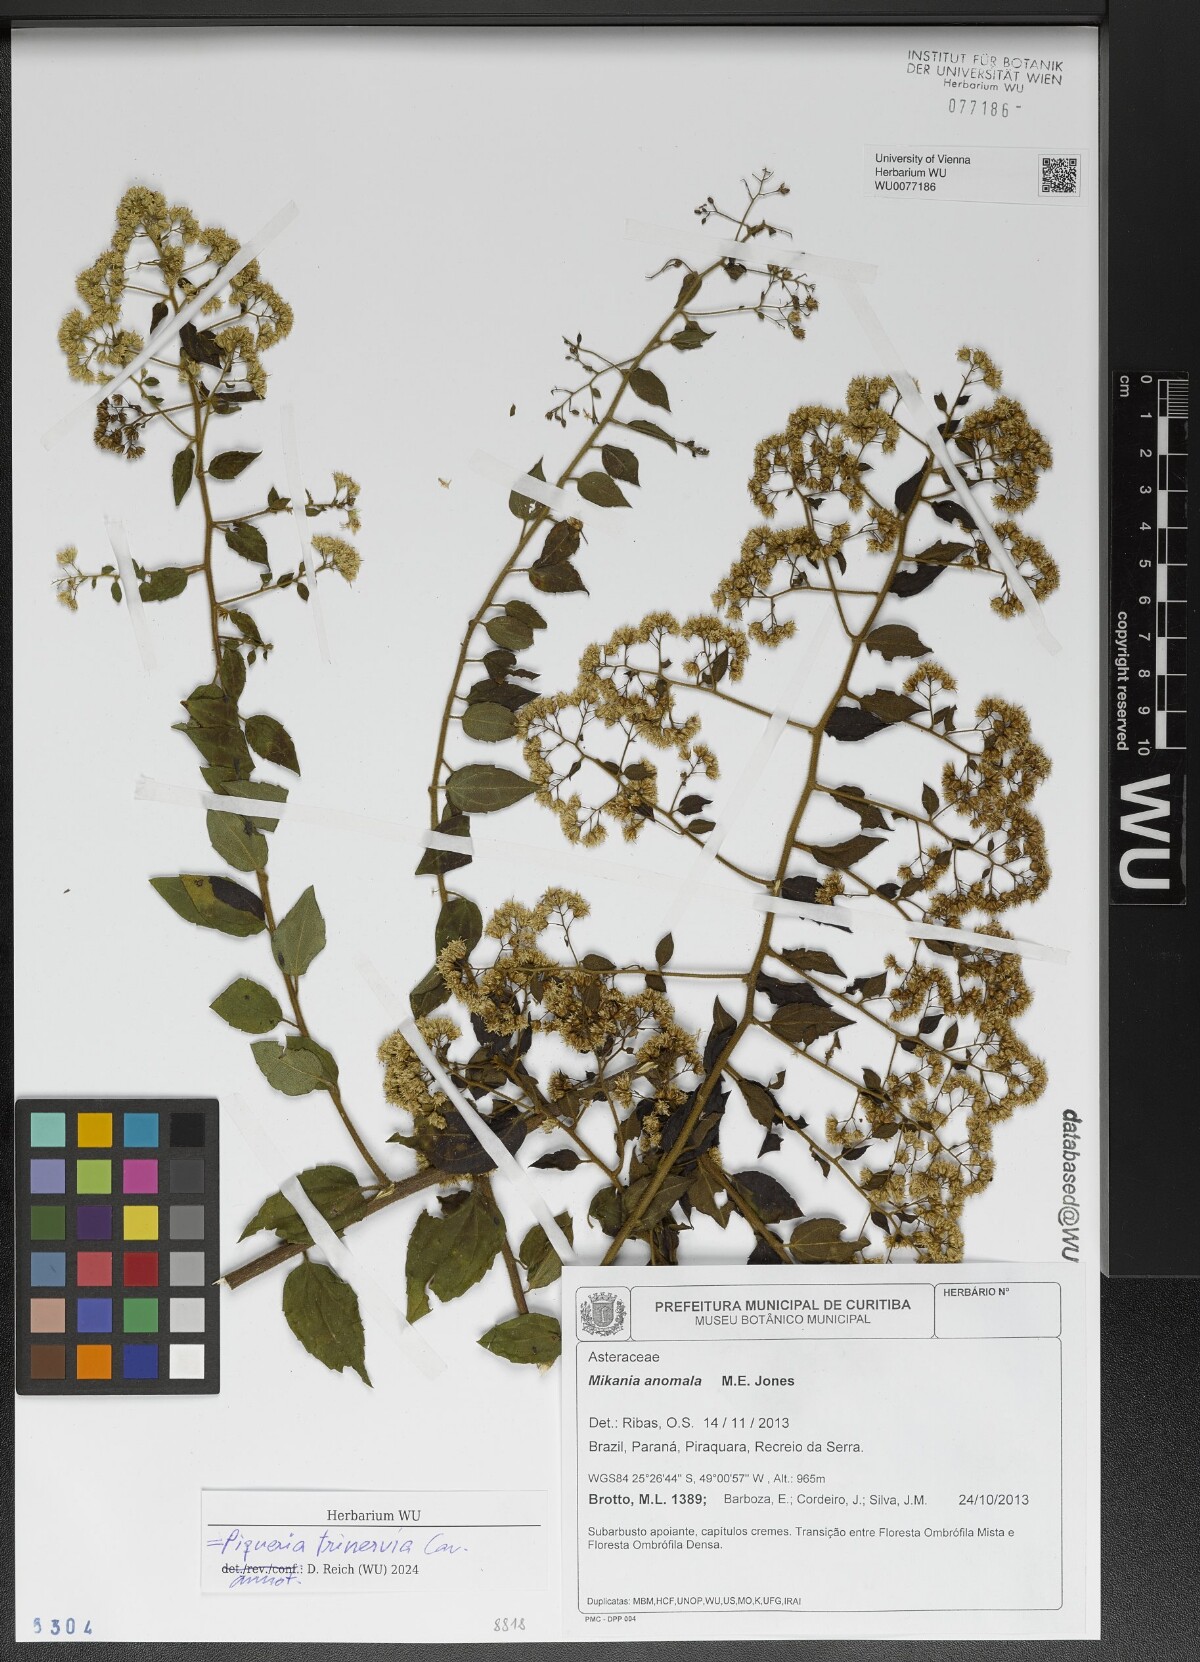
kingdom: Plantae
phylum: Tracheophyta
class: Magnoliopsida
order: Asterales
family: Asteraceae
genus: Piqueria
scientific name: Piqueria trinervia
